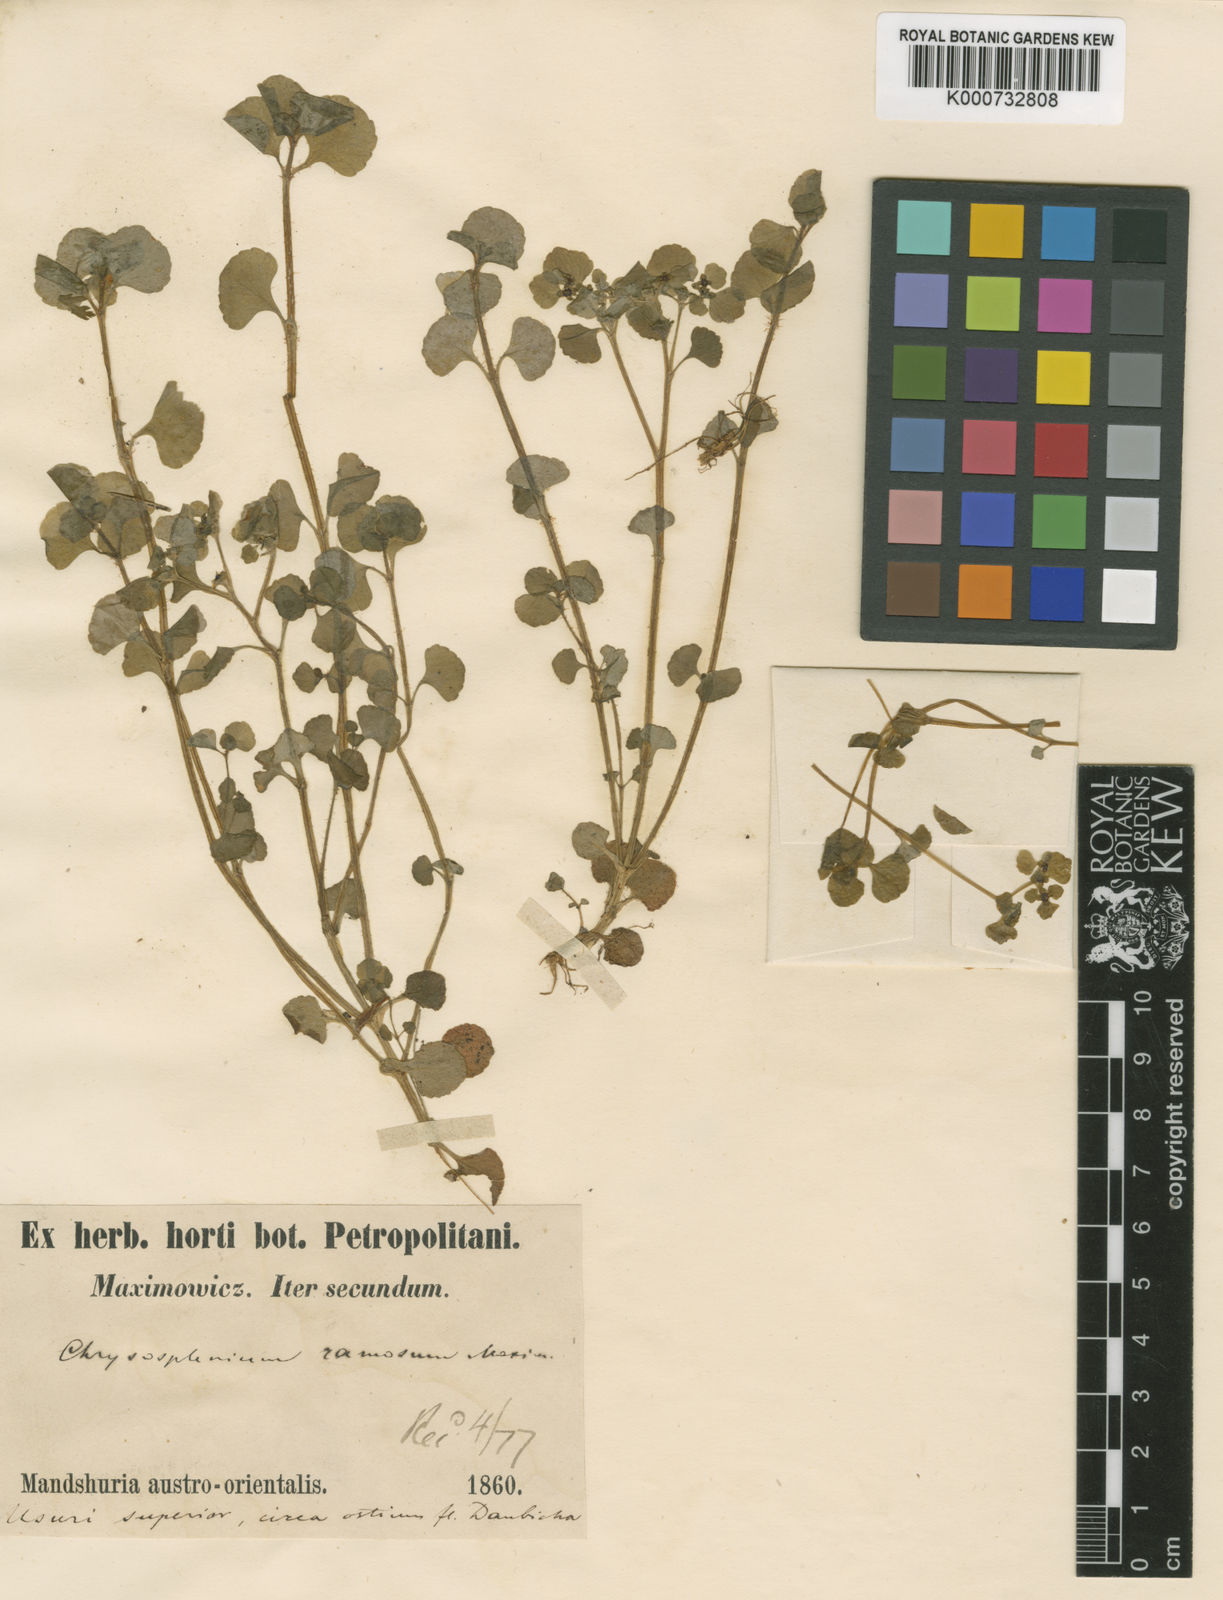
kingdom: Plantae
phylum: Tracheophyta
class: Magnoliopsida
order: Saxifragales
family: Saxifragaceae
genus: Chrysosplenium
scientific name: Chrysosplenium ramosum
